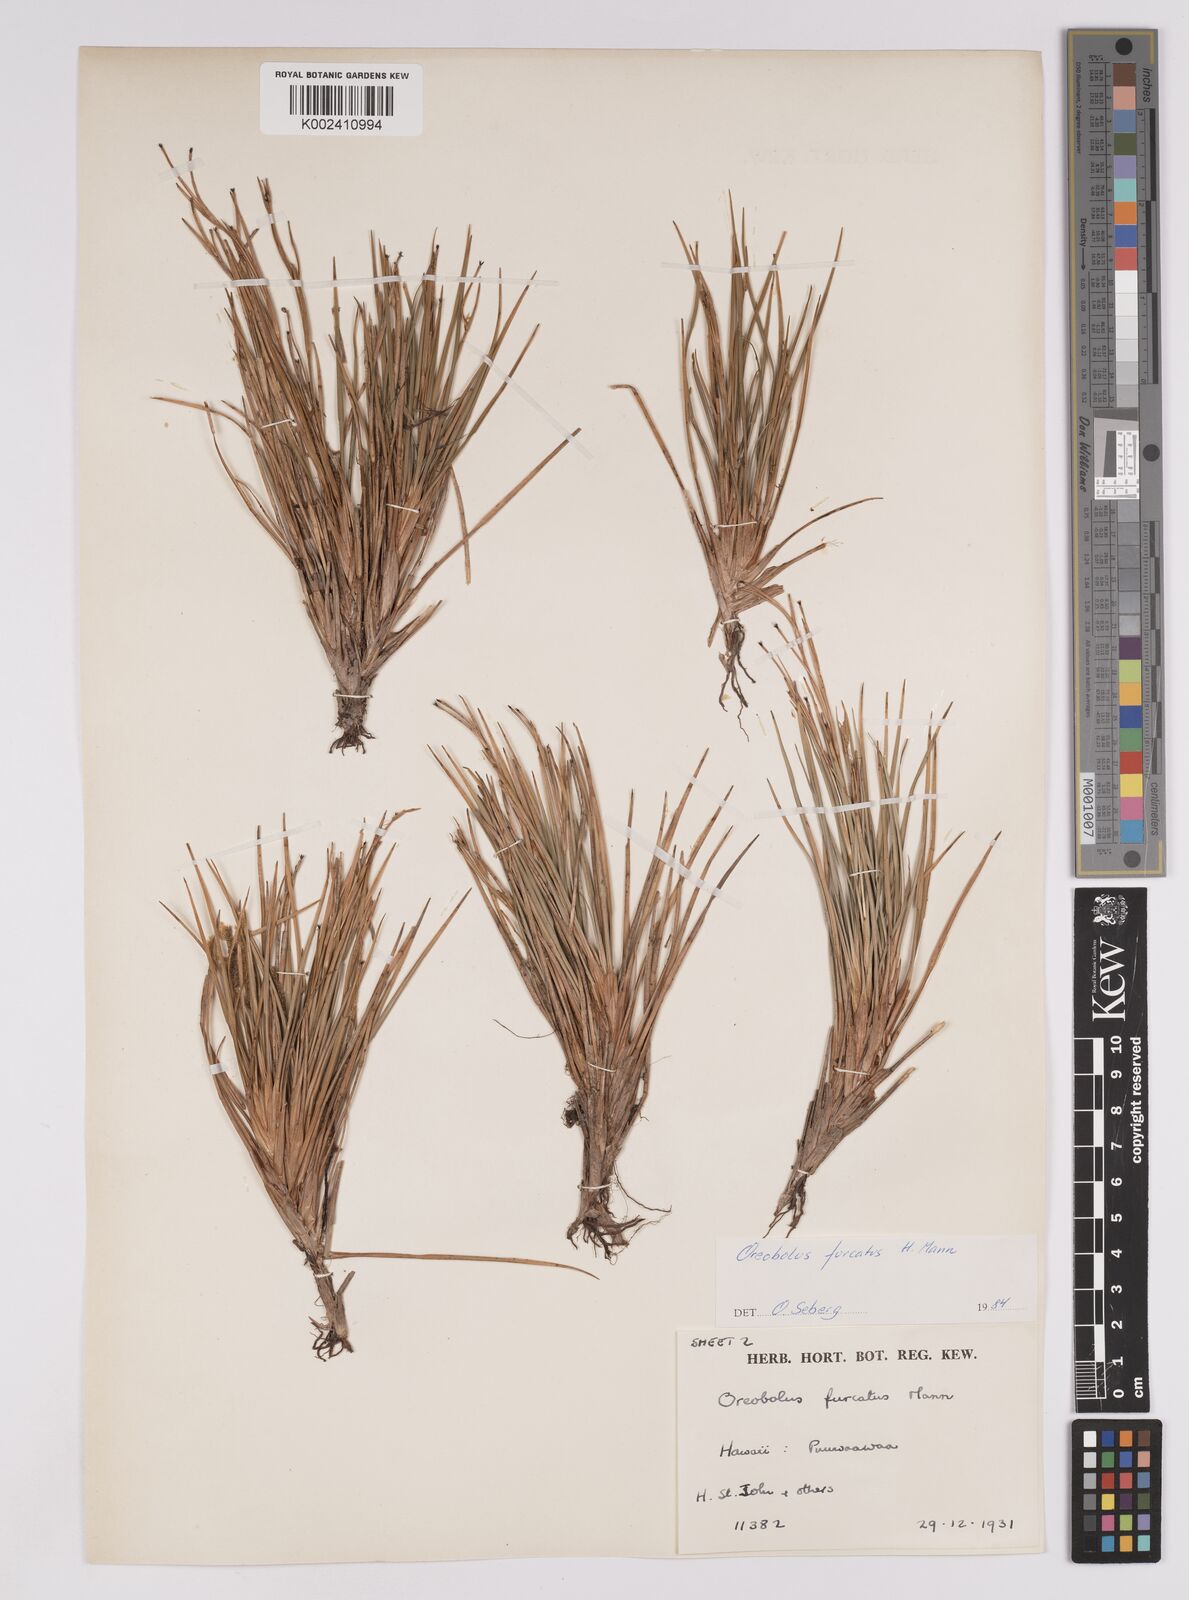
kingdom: Plantae
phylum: Tracheophyta
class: Liliopsida
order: Poales
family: Cyperaceae
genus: Oreobolus
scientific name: Oreobolus furcatus
